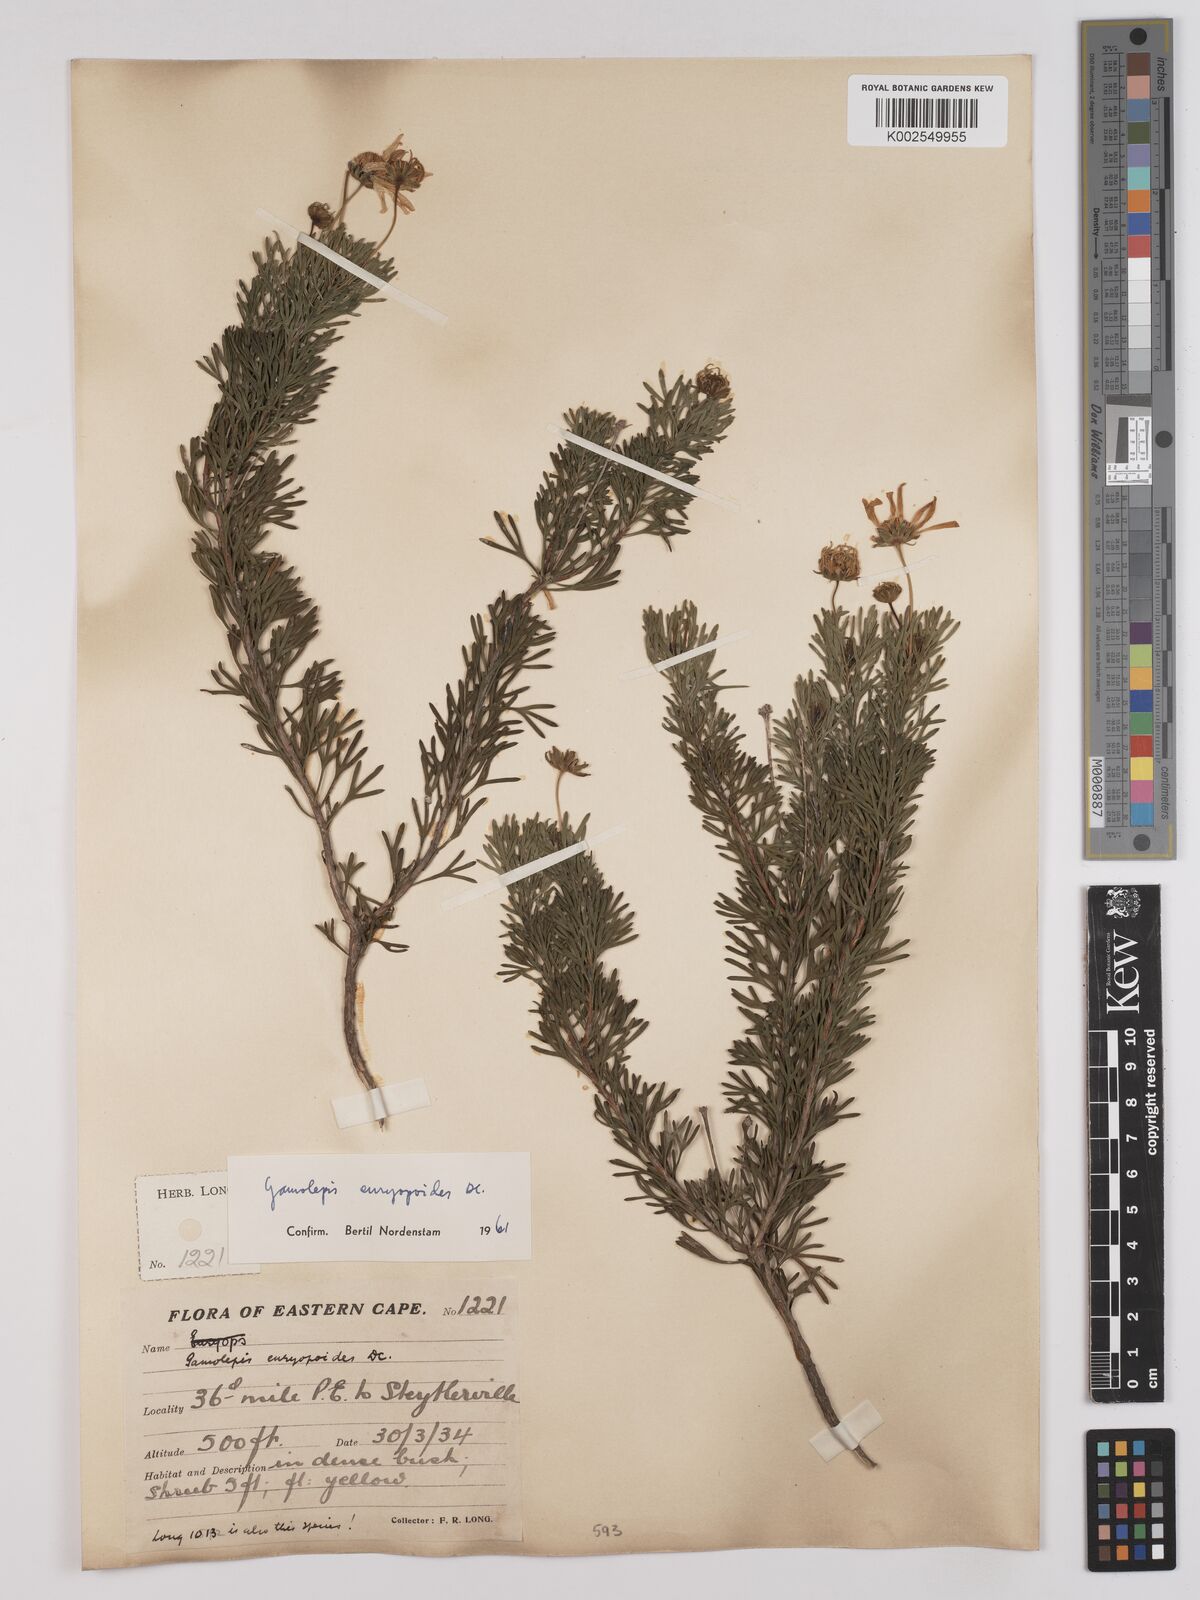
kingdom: Plantae
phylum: Tracheophyta
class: Magnoliopsida
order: Asterales
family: Asteraceae
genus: Euryops
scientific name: Euryops euryopoides
